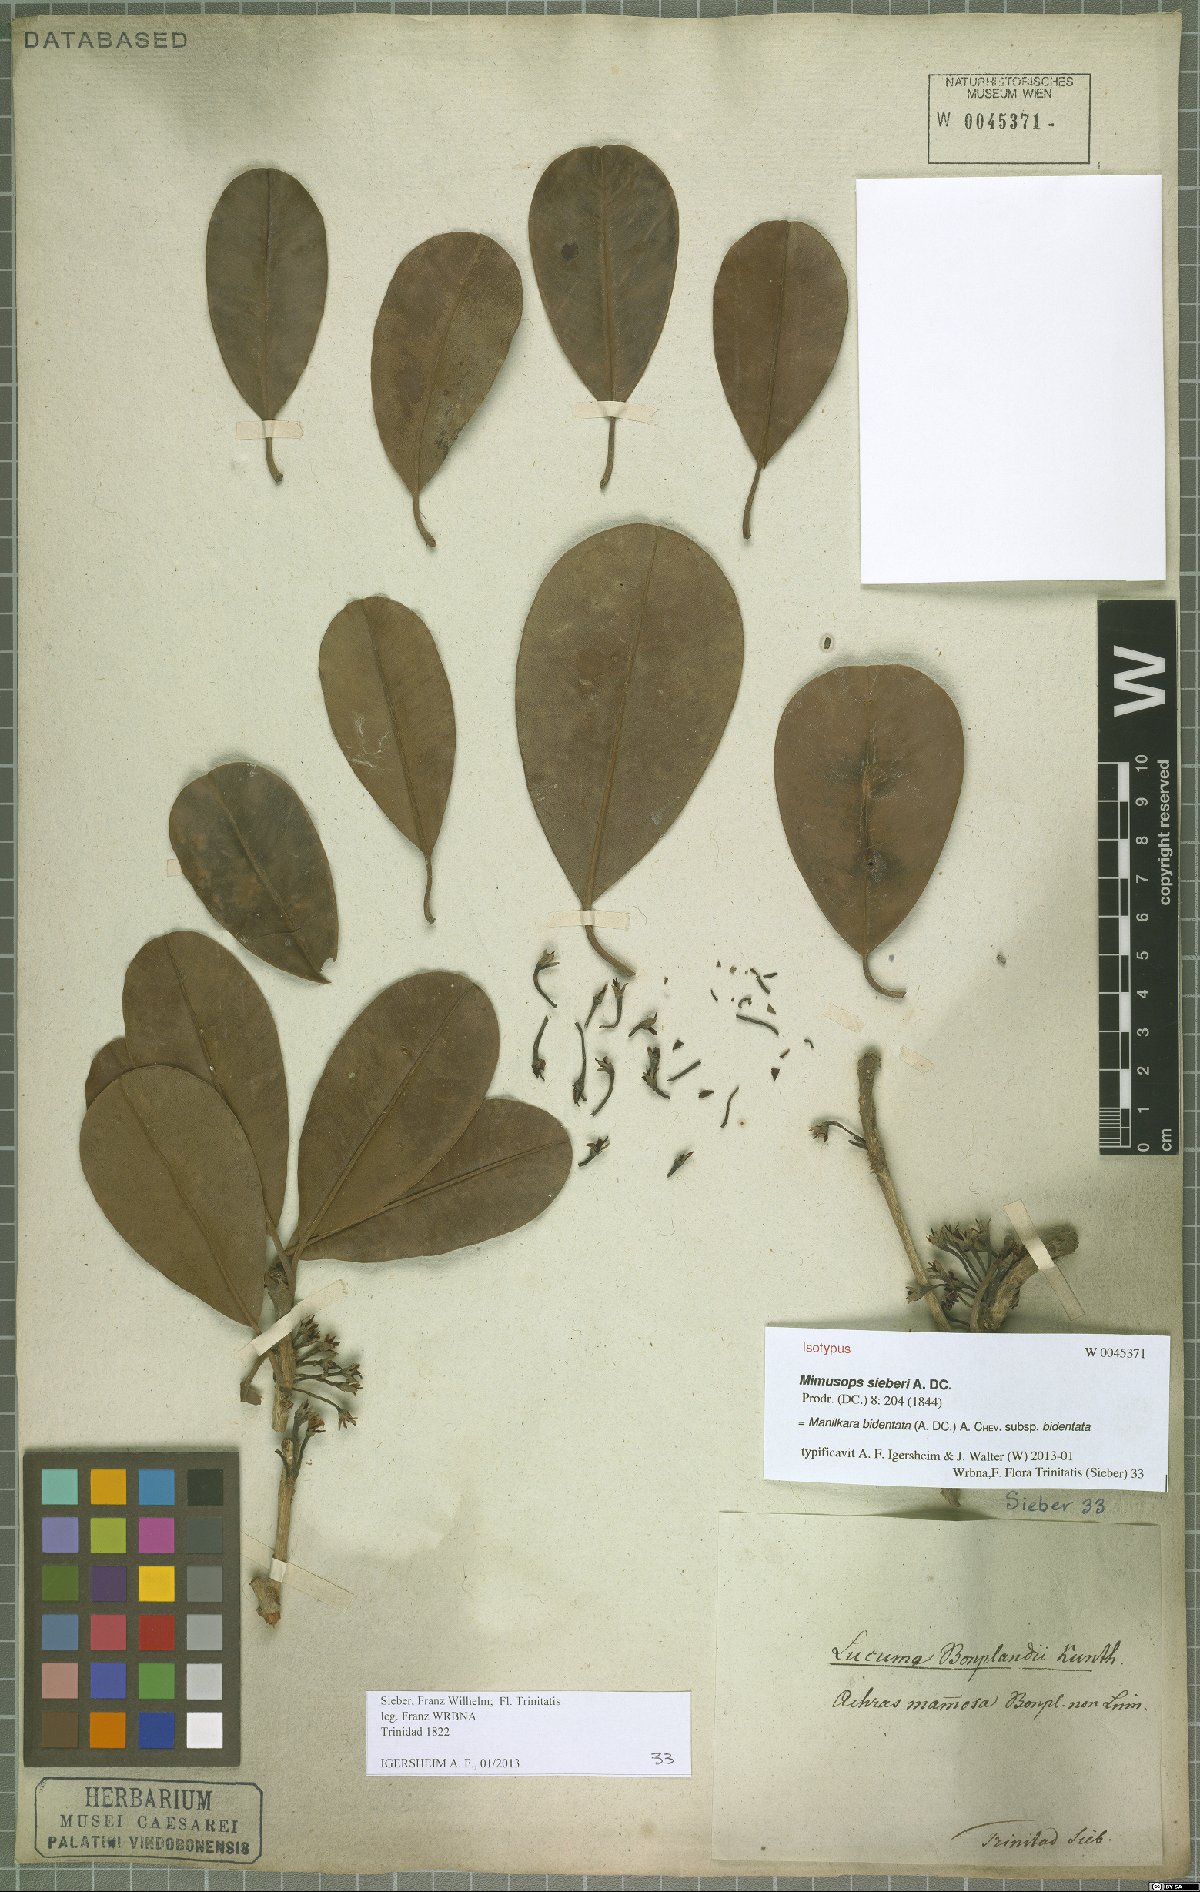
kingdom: Plantae
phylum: Tracheophyta
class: Magnoliopsida
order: Ericales
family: Sapotaceae
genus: Manilkara
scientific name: Manilkara bidentata
